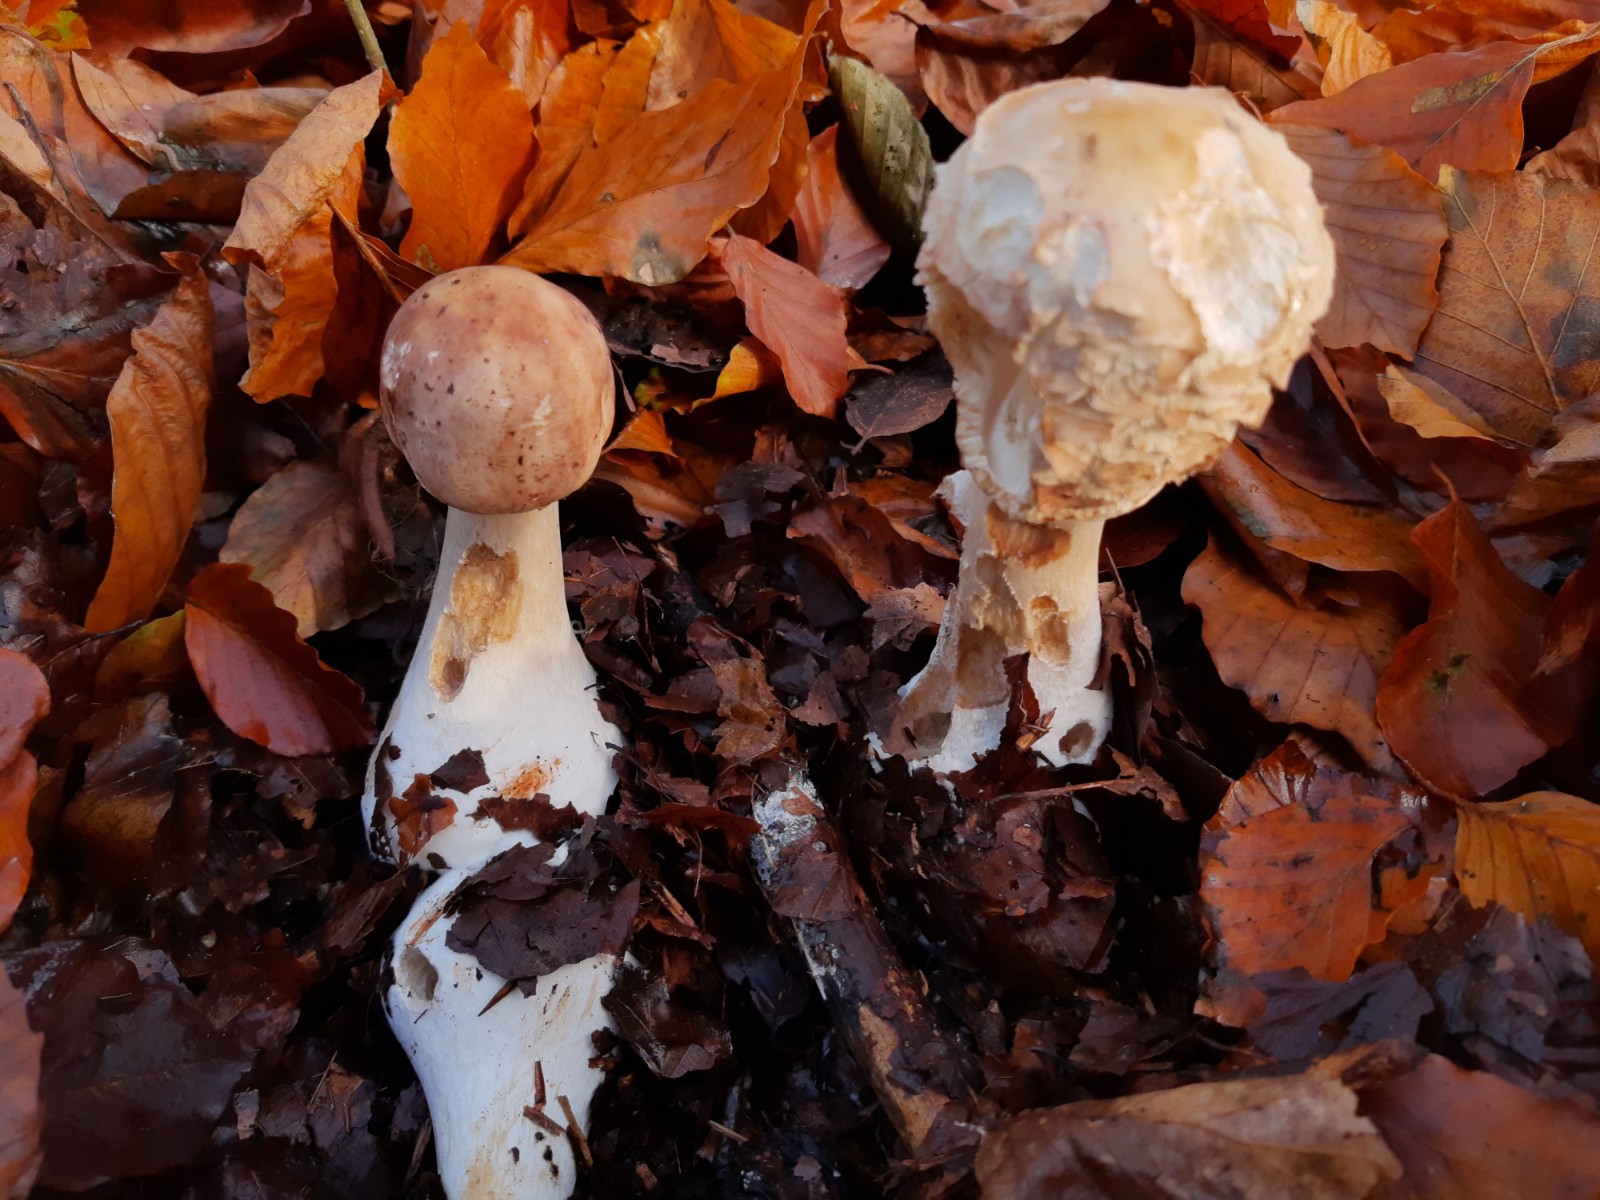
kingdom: Fungi
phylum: Basidiomycota
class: Agaricomycetes
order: Agaricales
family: Agaricaceae
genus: Chlorophyllum
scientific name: Chlorophyllum olivieri
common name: almindelig rabarberhat
